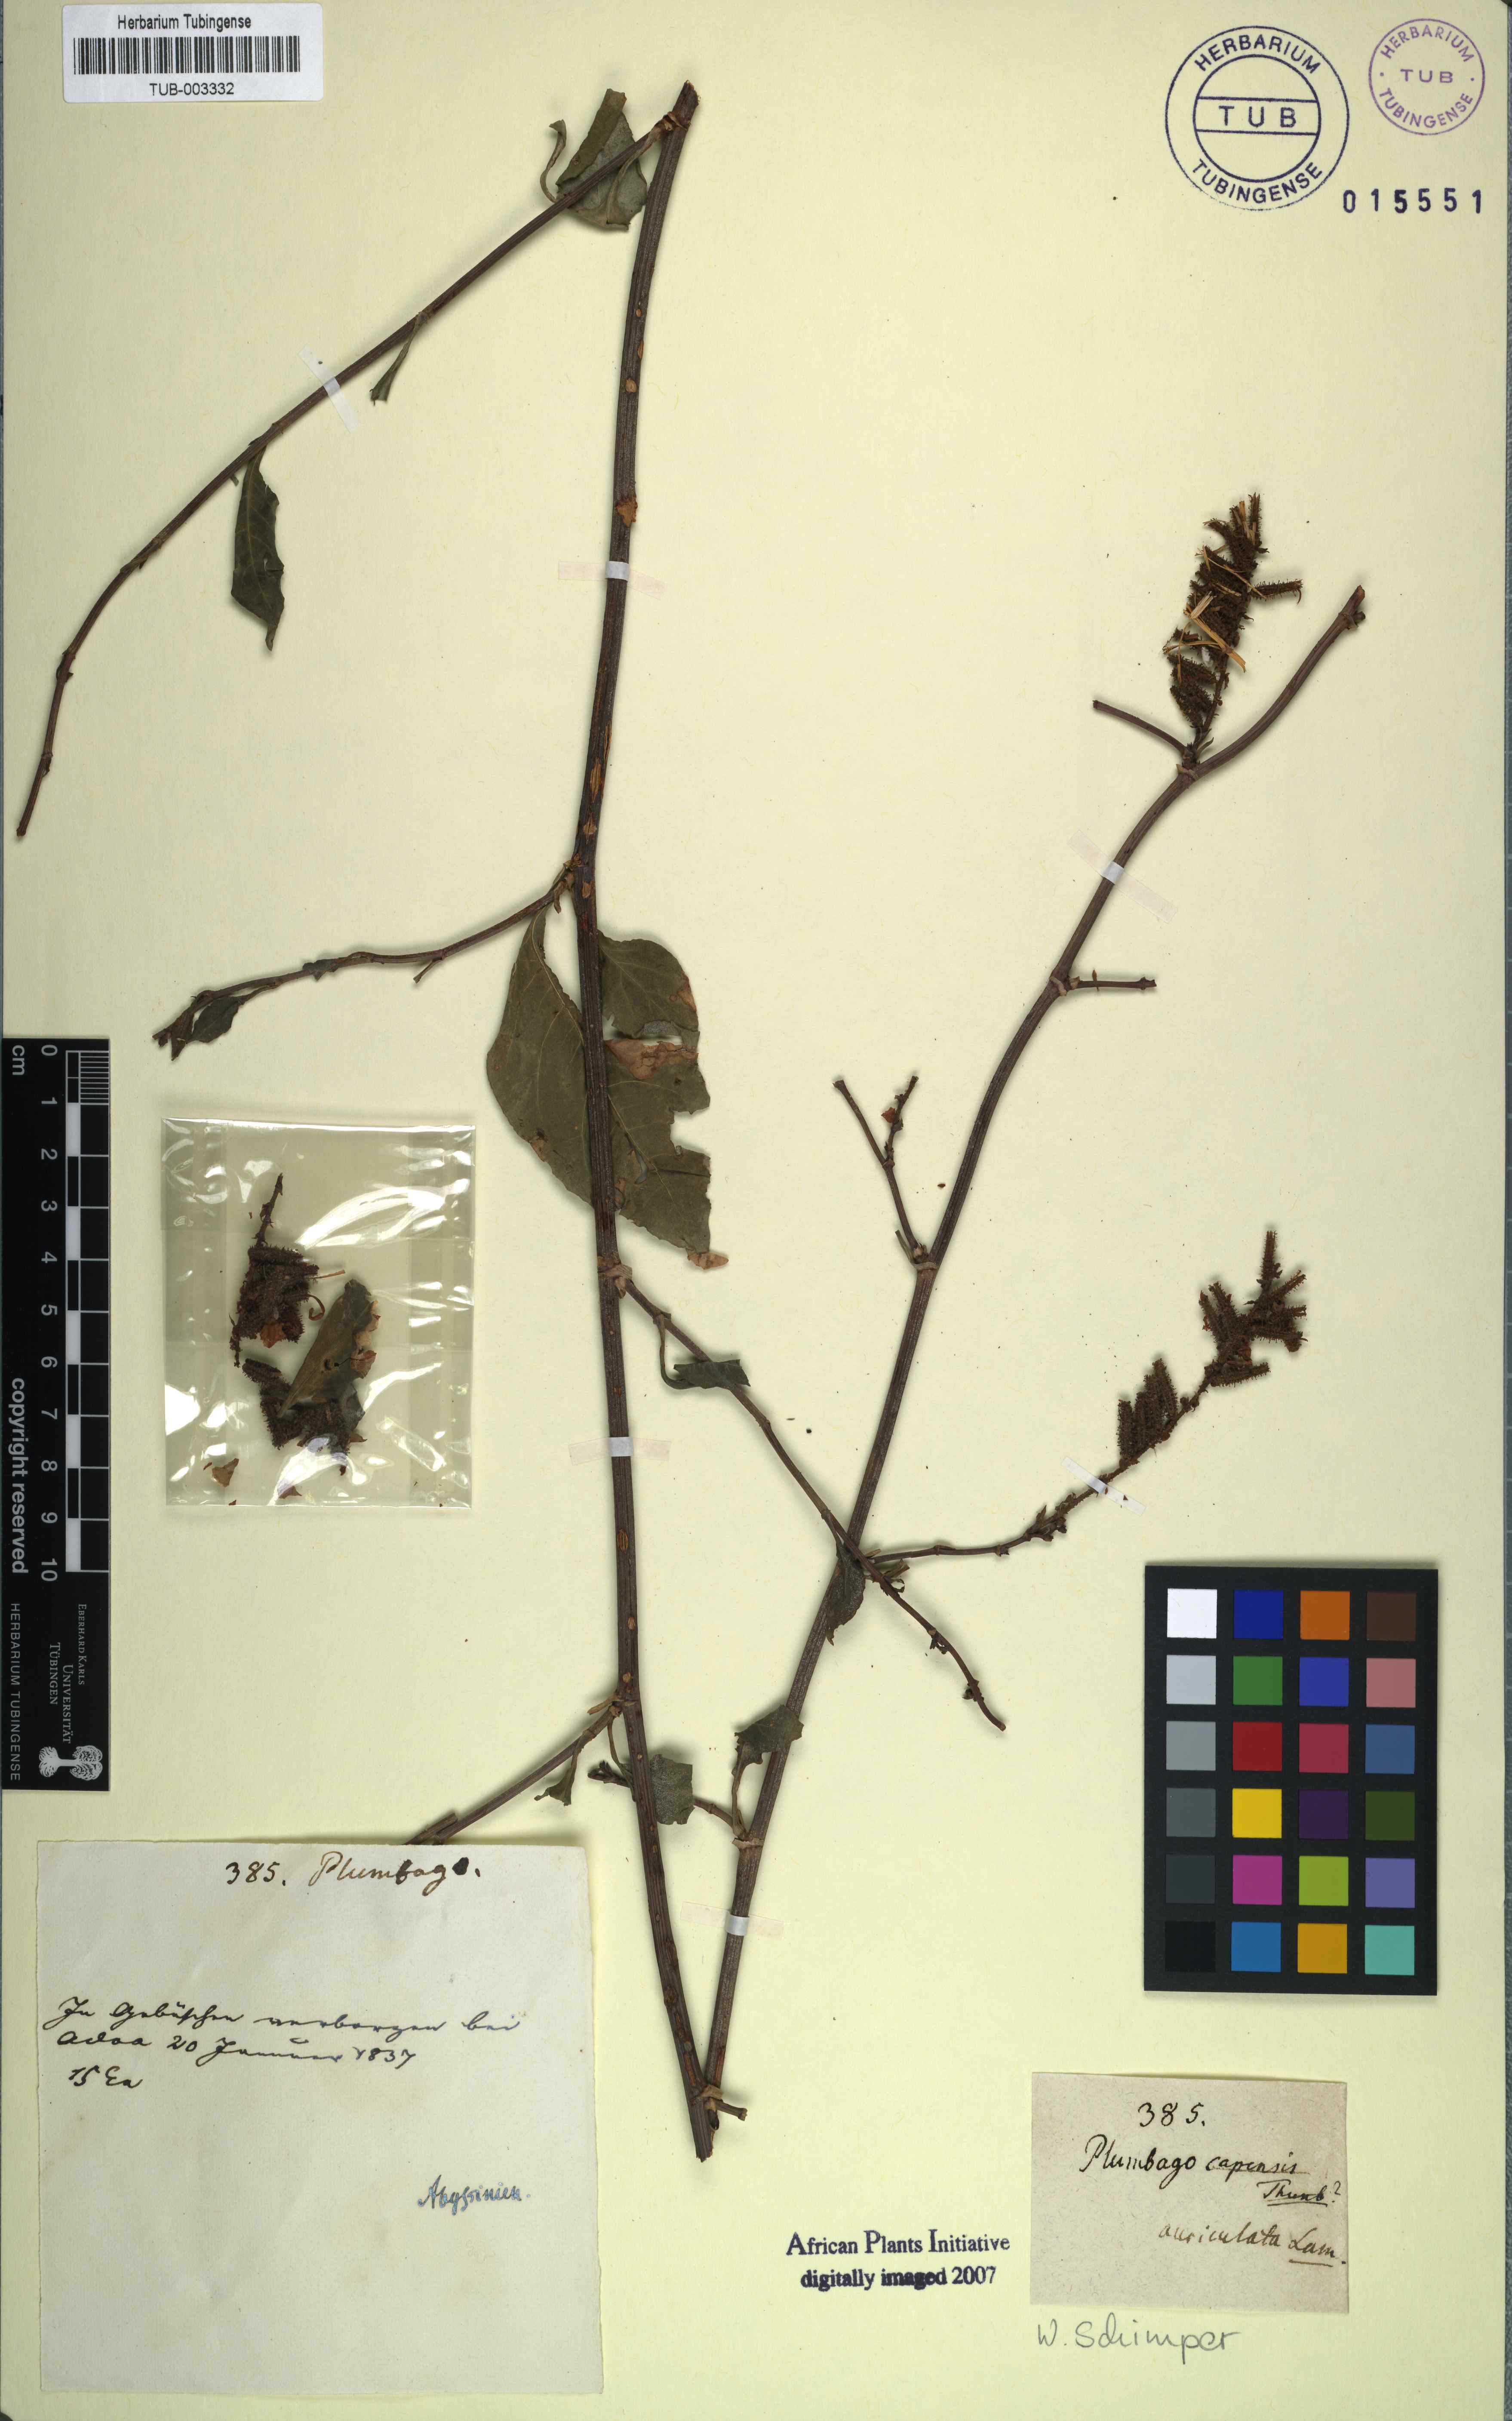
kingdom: Plantae
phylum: Tracheophyta
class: Magnoliopsida
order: Caryophyllales
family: Plumbaginaceae
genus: Plumbago
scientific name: Plumbago auriculata
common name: Cape leadwort
